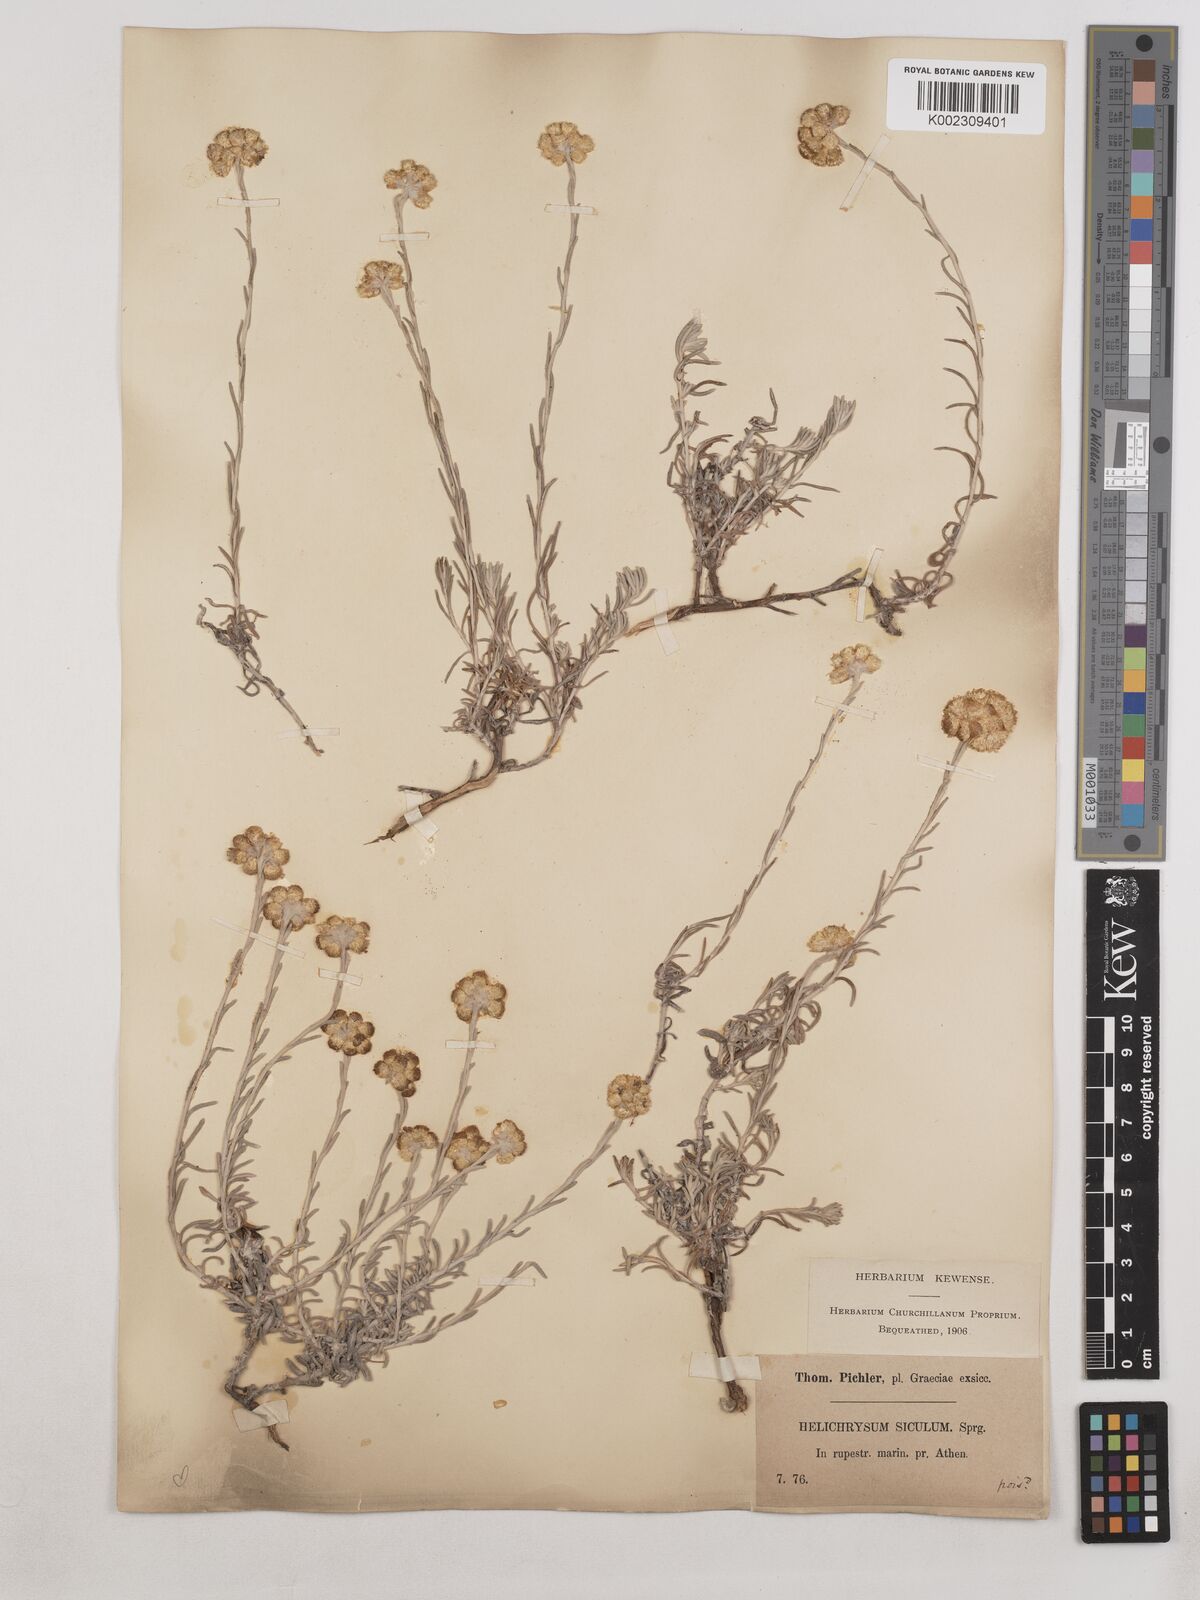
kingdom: Plantae
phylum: Tracheophyta
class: Magnoliopsida
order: Asterales
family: Asteraceae
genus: Helichrysum
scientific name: Helichrysum stoechas
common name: Goldilocks
